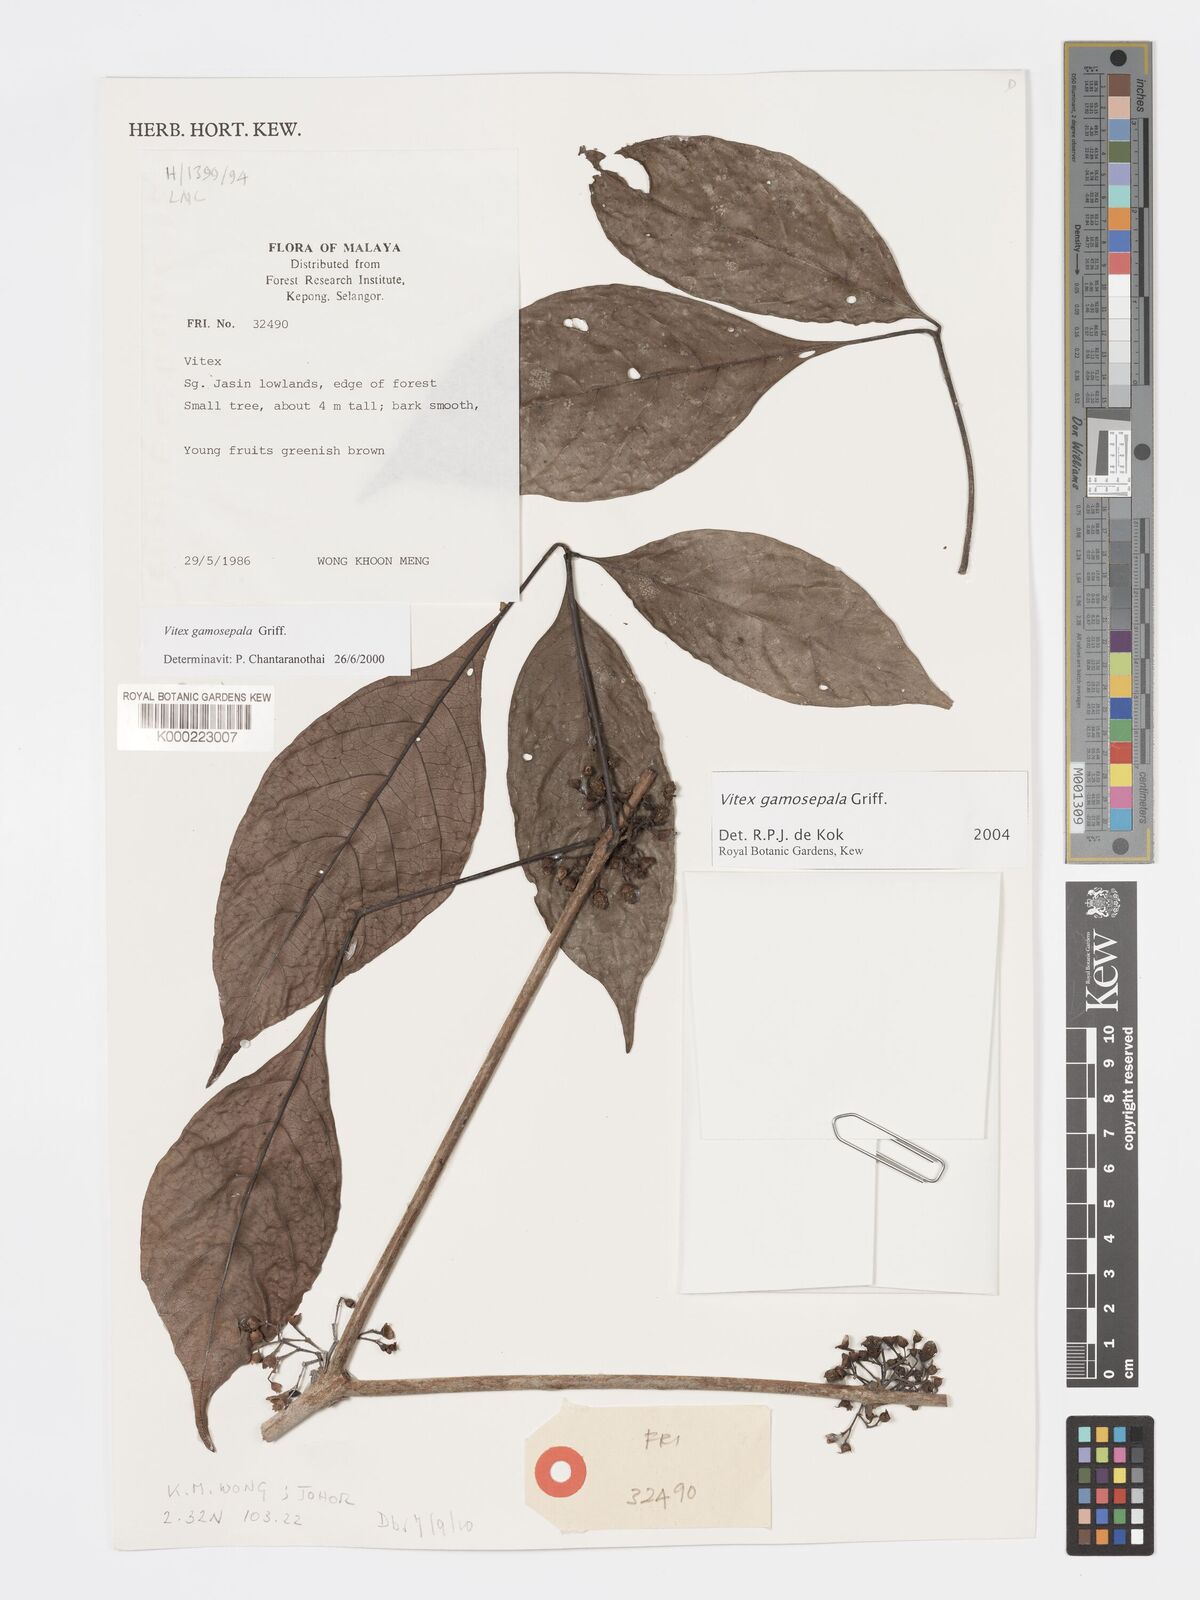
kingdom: Plantae
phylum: Tracheophyta
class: Magnoliopsida
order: Lamiales
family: Lamiaceae
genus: Vitex
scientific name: Vitex gamosepala
